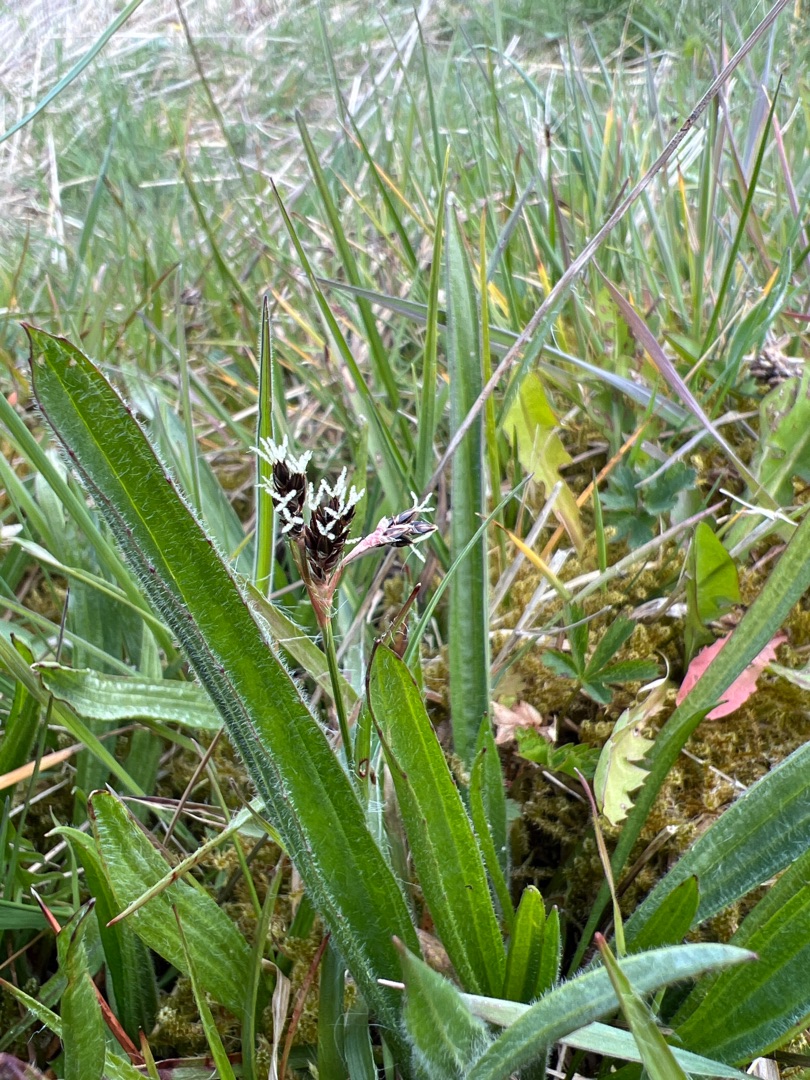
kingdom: Plantae
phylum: Tracheophyta
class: Liliopsida
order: Poales
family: Juncaceae
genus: Luzula
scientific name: Luzula campestris
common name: Mark-frytle
